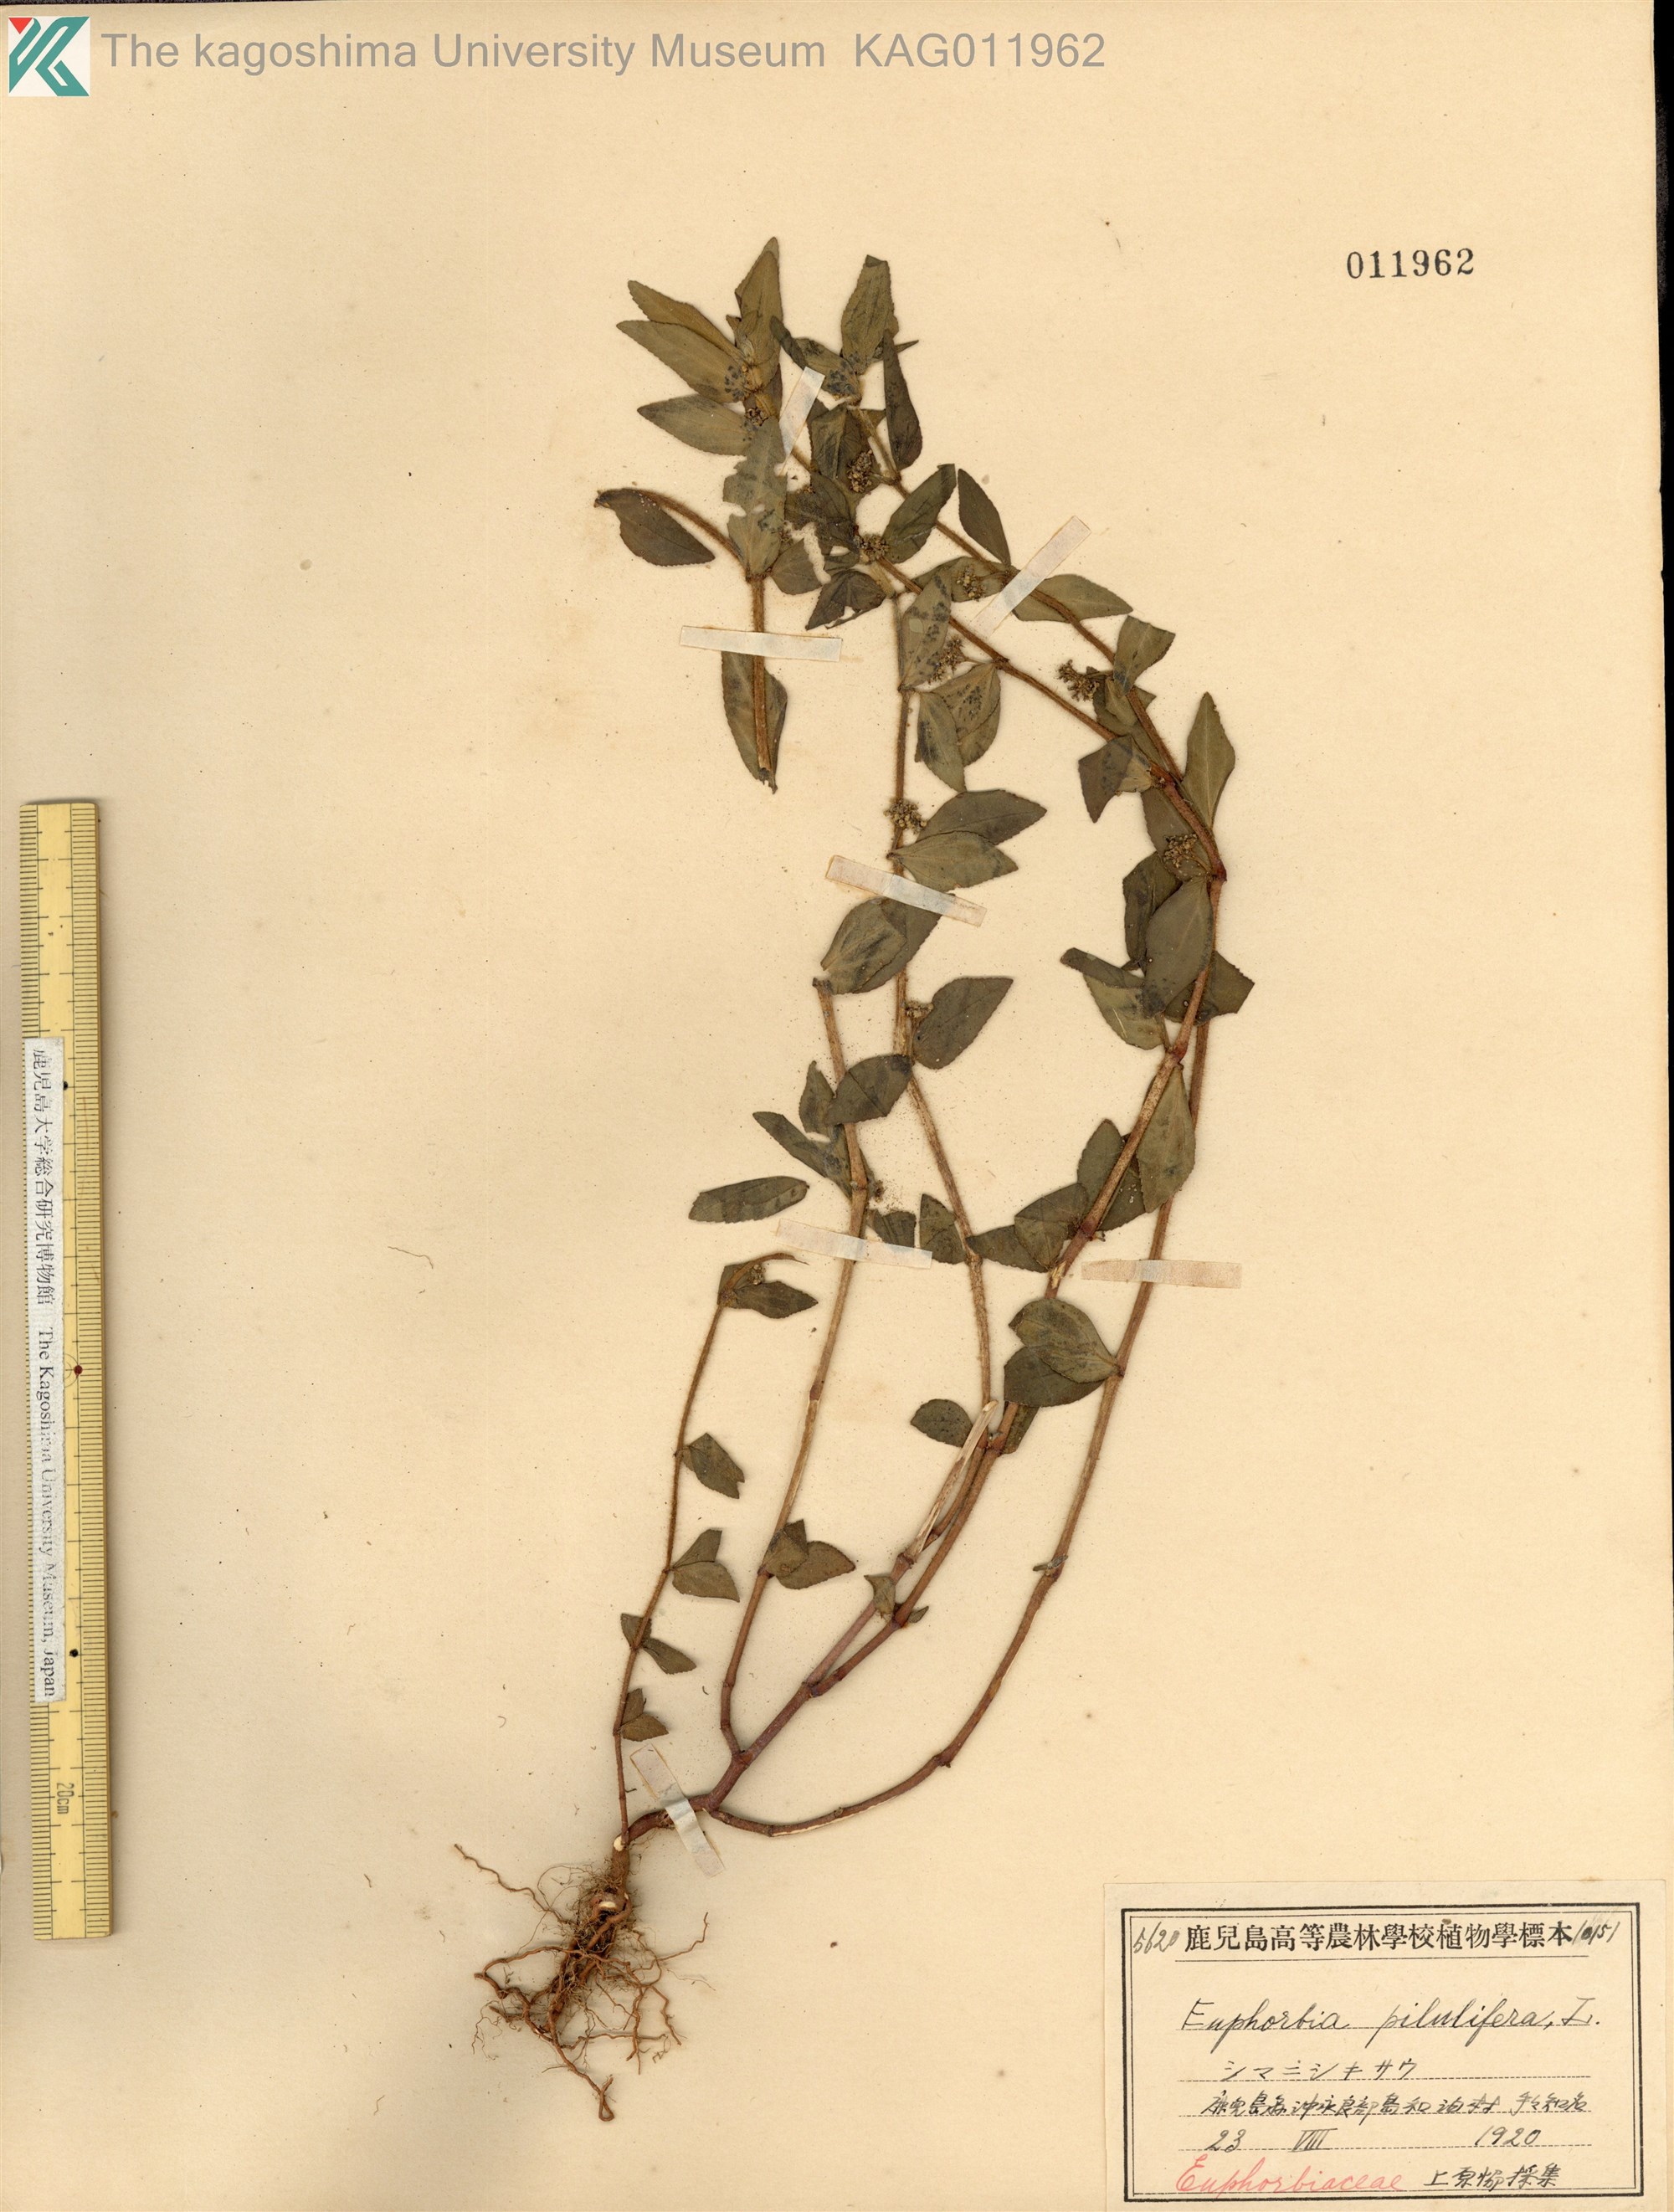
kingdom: Plantae
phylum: Tracheophyta
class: Magnoliopsida
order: Malpighiales
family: Euphorbiaceae
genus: Euphorbia
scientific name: Euphorbia hirta
